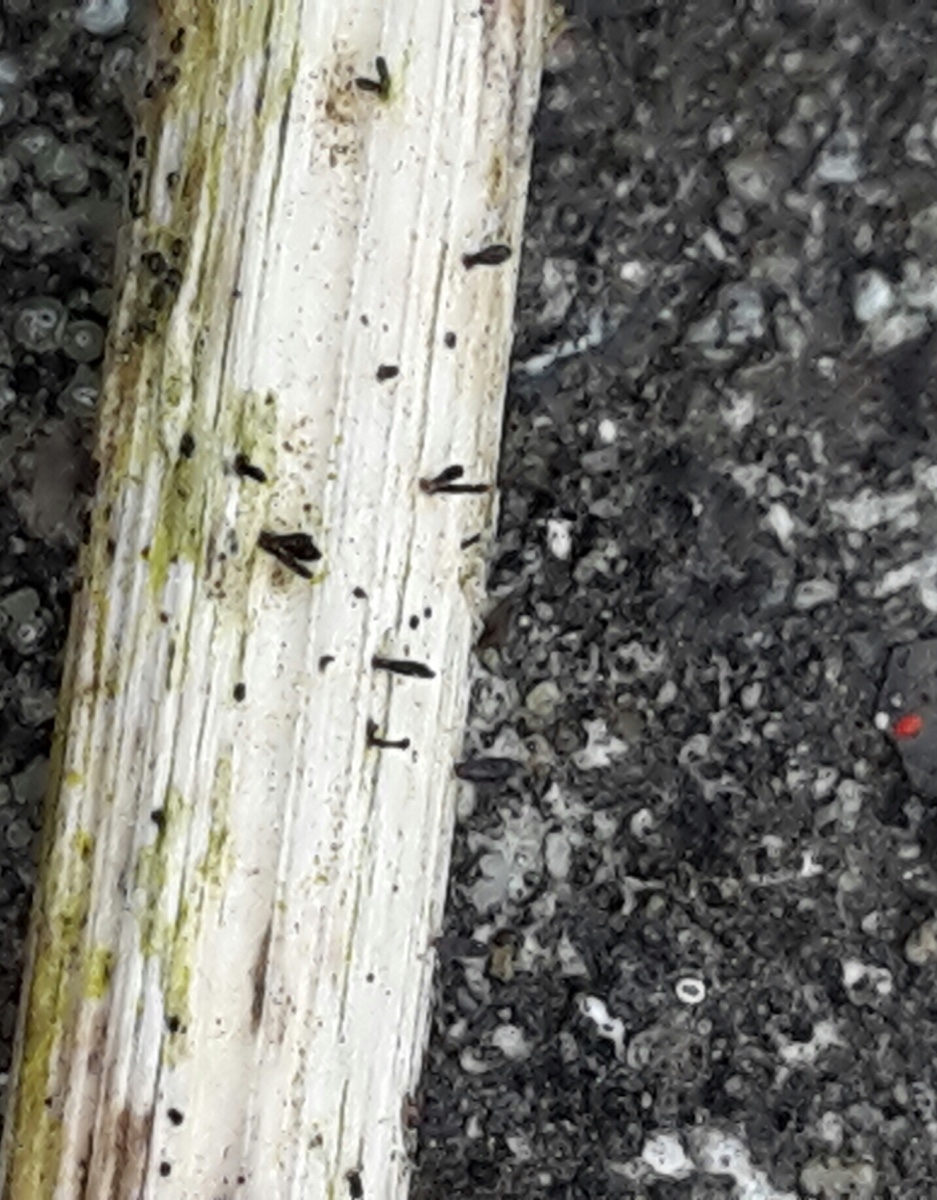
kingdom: Fungi
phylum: Ascomycota
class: Dothideomycetes
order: Acrospermales
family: Acrospermaceae
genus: Acrospermum
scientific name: Acrospermum compressum
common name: nælde-stængeltunge
